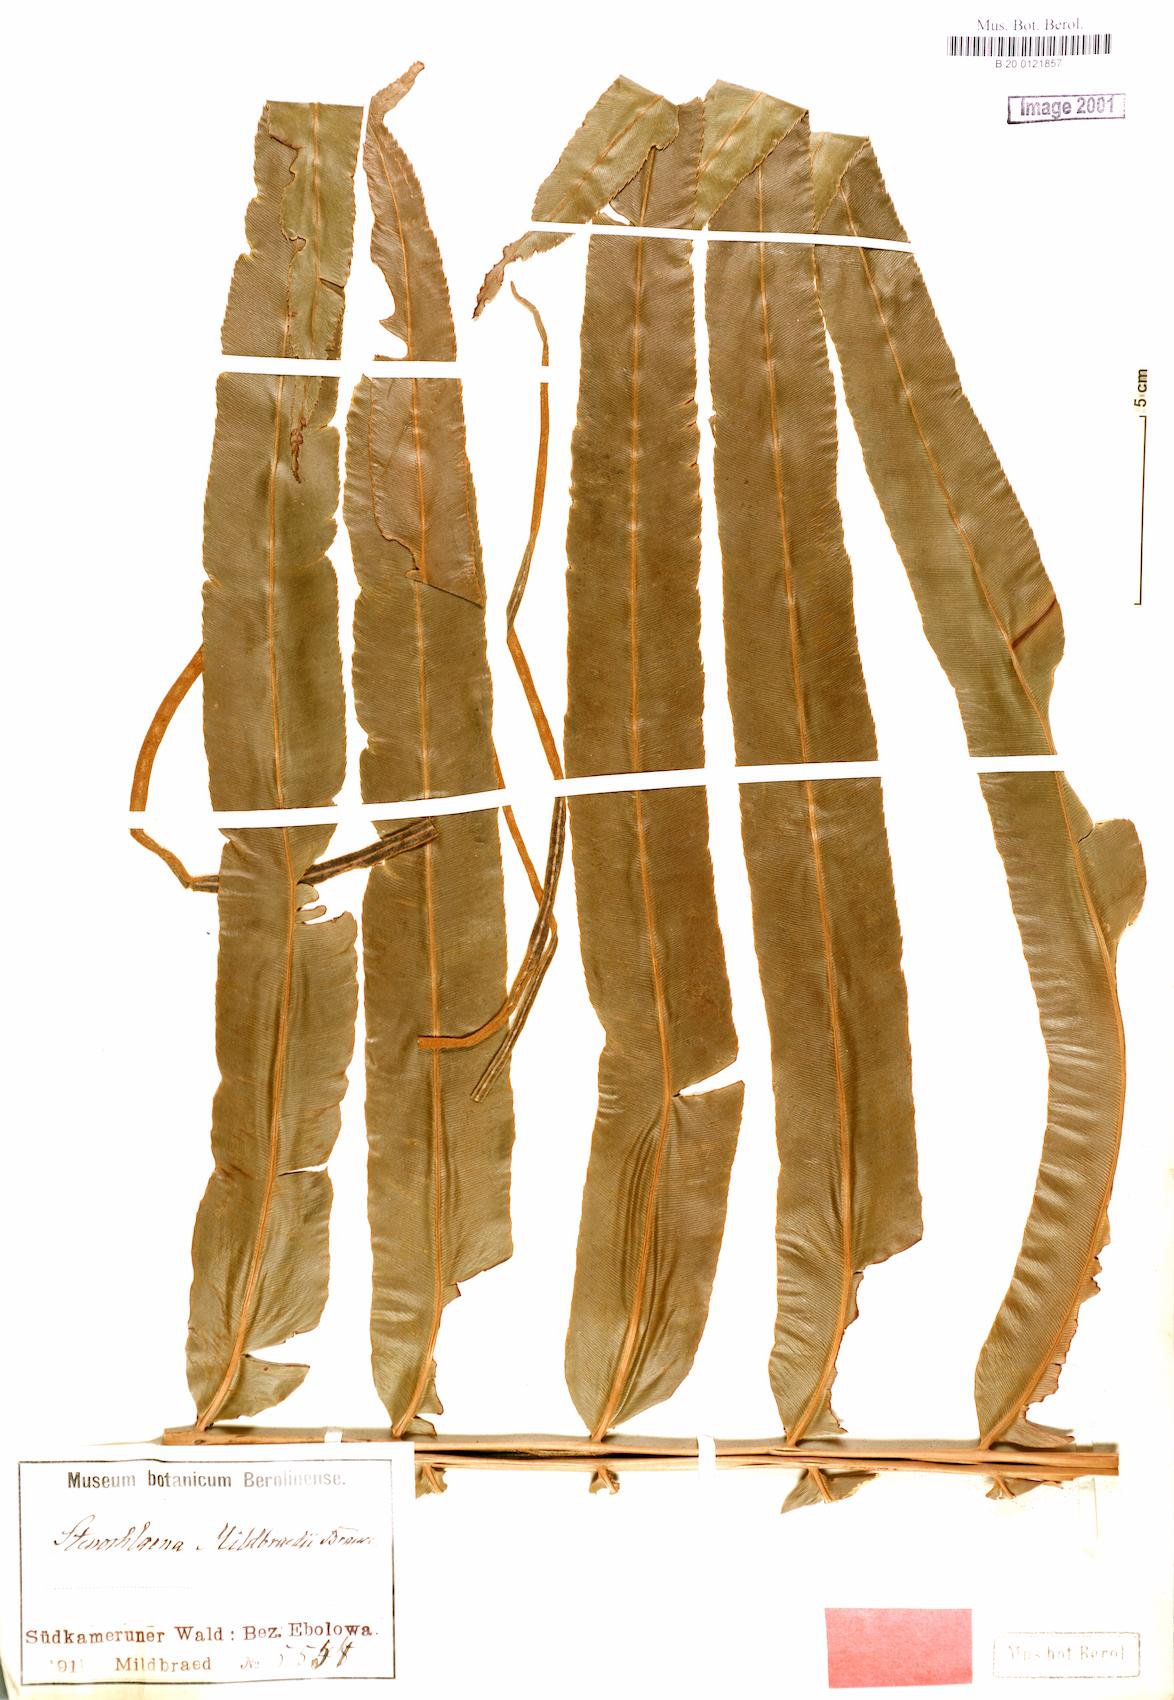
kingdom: Plantae
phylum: Tracheophyta
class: Polypodiopsida
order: Polypodiales
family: Blechnaceae
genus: Stenochlaena
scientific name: Stenochlaena tenuifolia
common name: Giant vine fern
